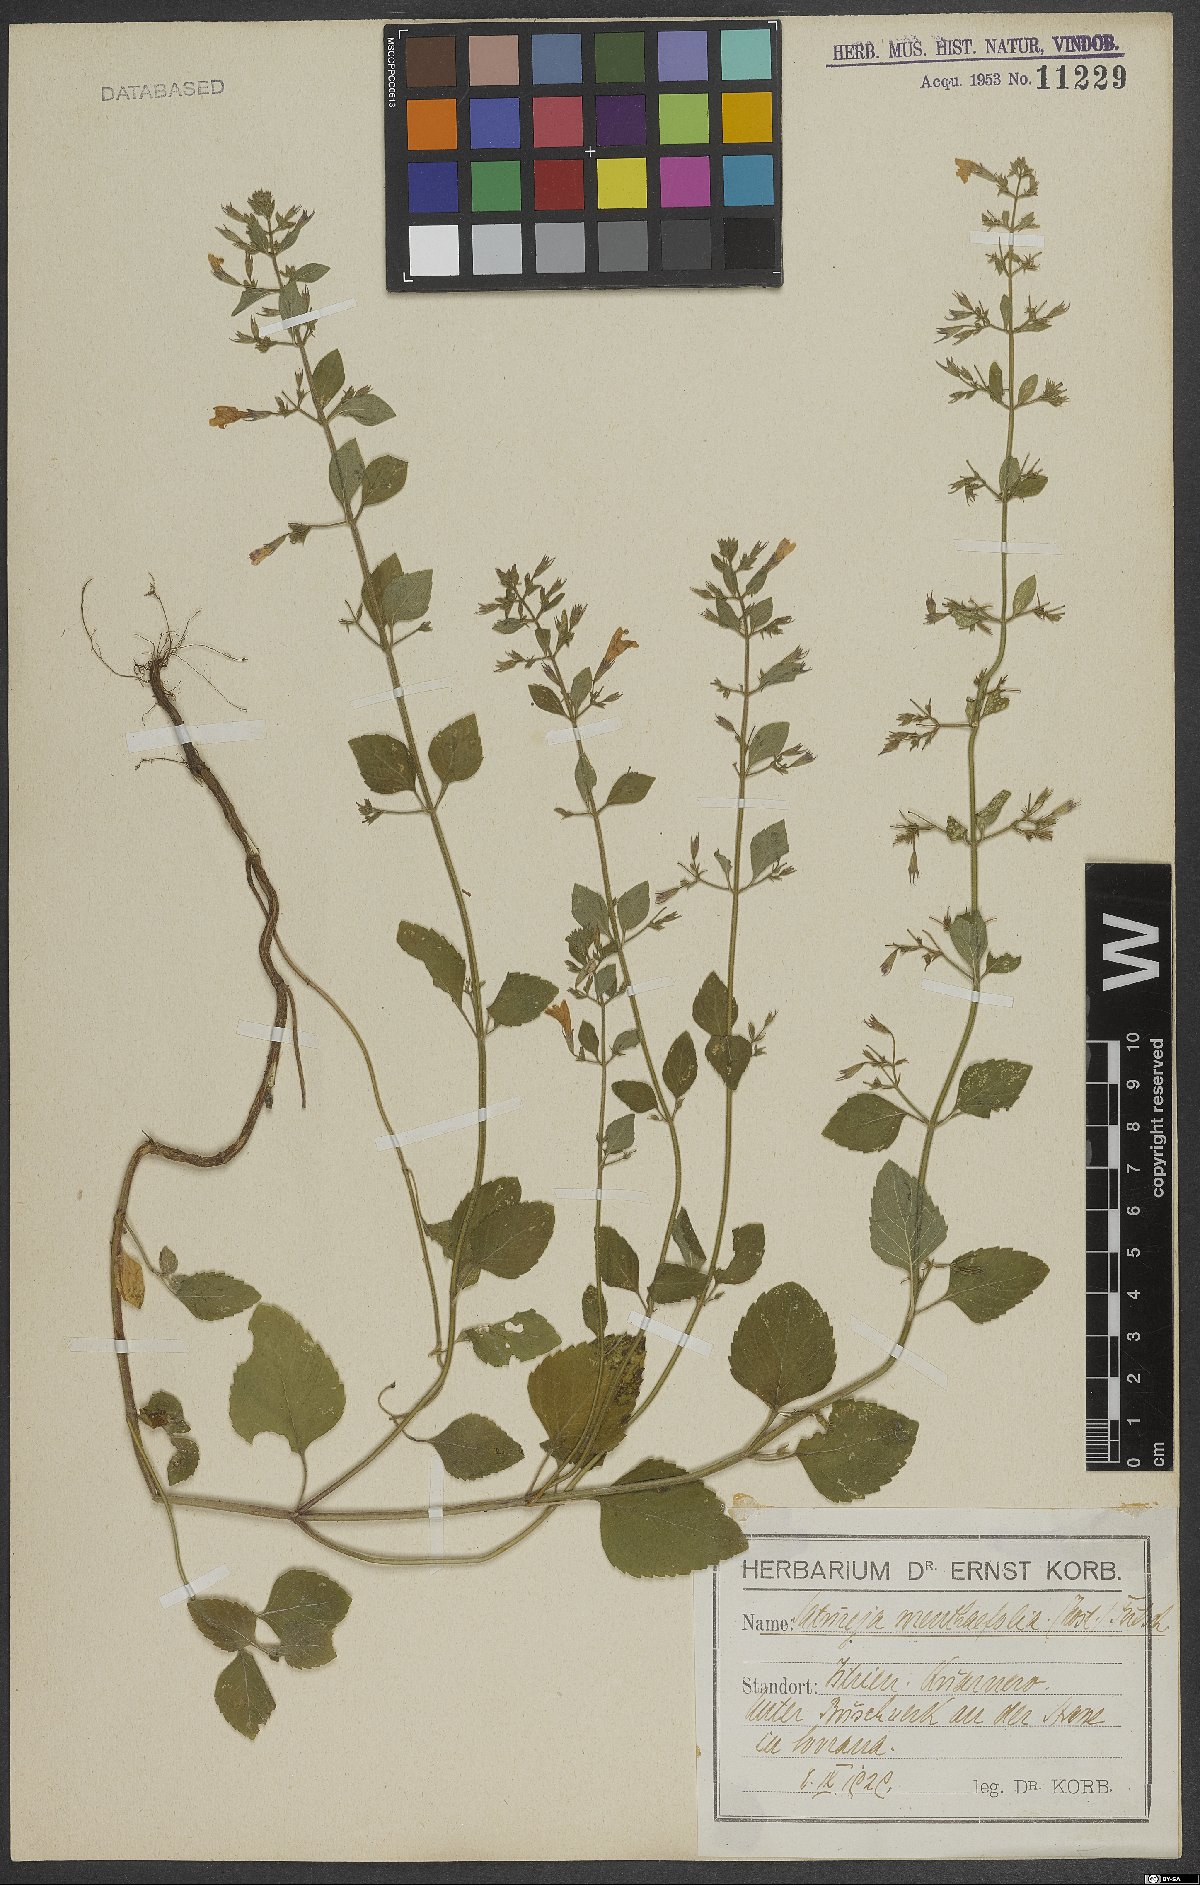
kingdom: Plantae
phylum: Tracheophyta
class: Magnoliopsida
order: Lamiales
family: Lamiaceae
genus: Clinopodium
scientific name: Clinopodium menthifolium
